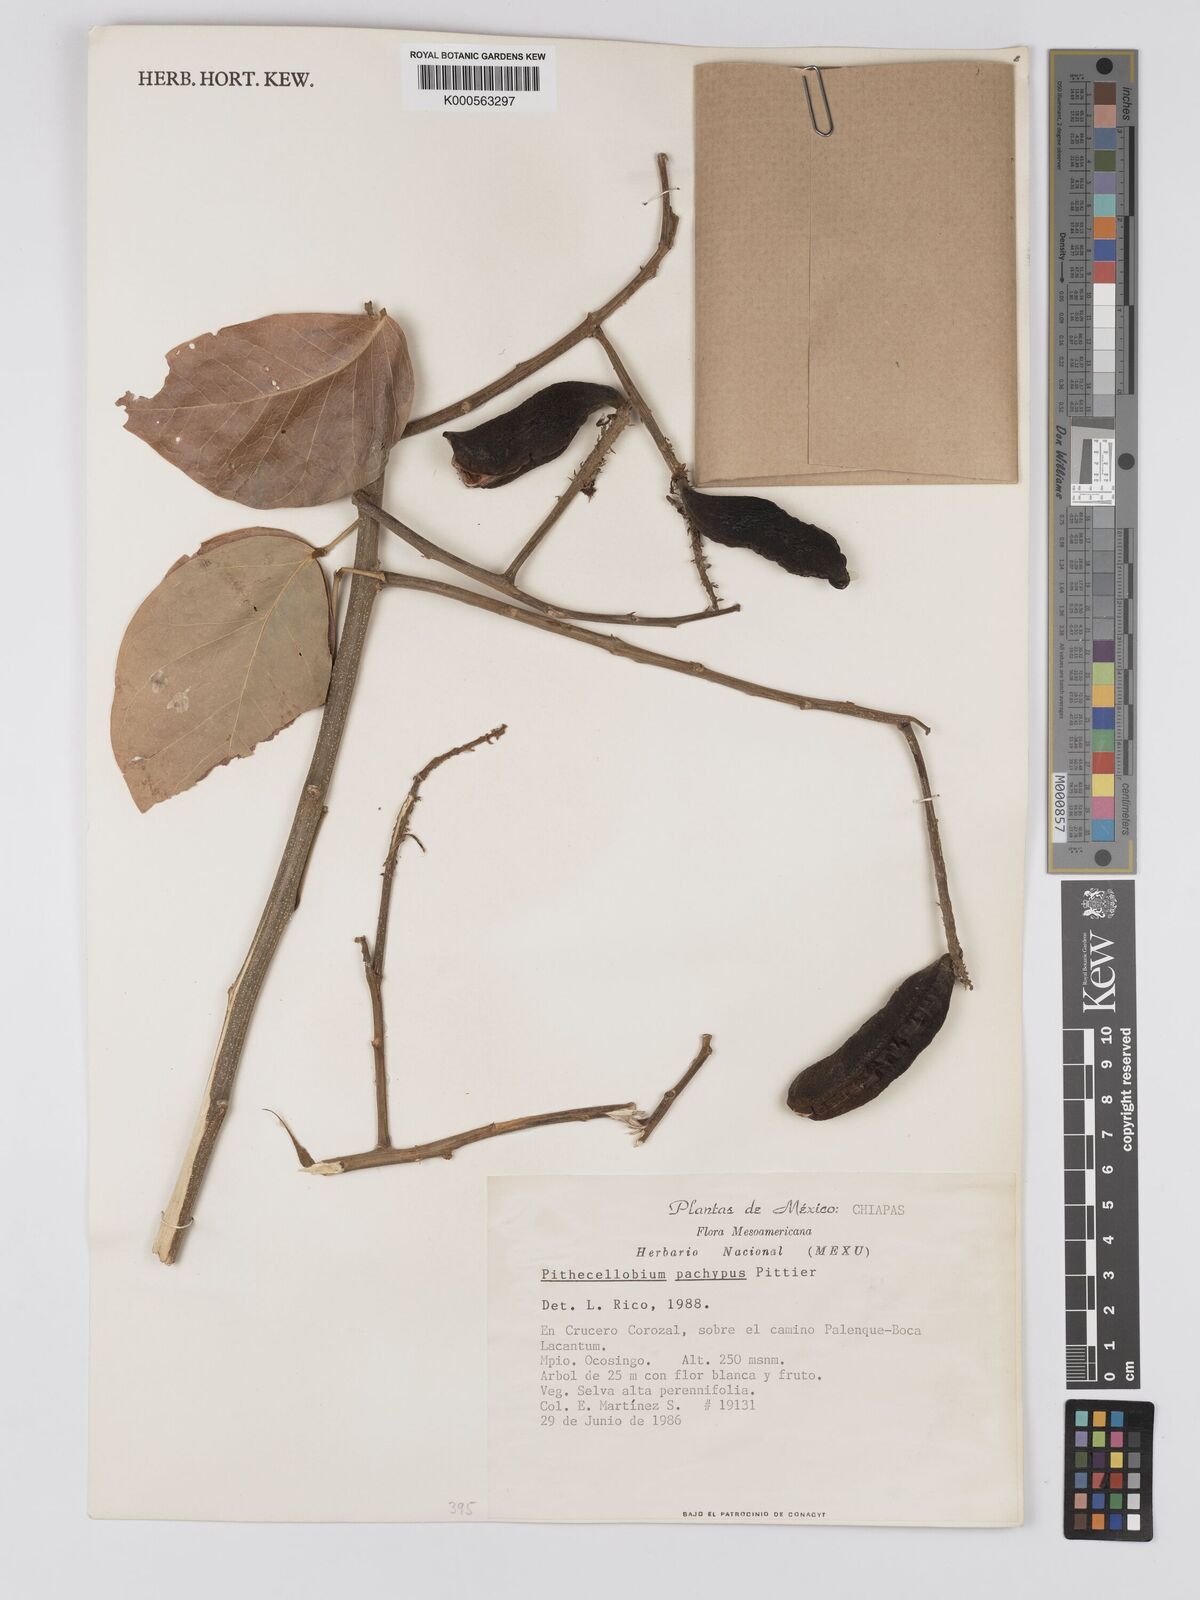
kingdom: Plantae
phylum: Tracheophyta
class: Magnoliopsida
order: Fabales
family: Fabaceae
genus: Pithecellobium
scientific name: Pithecellobium lanceolatum
